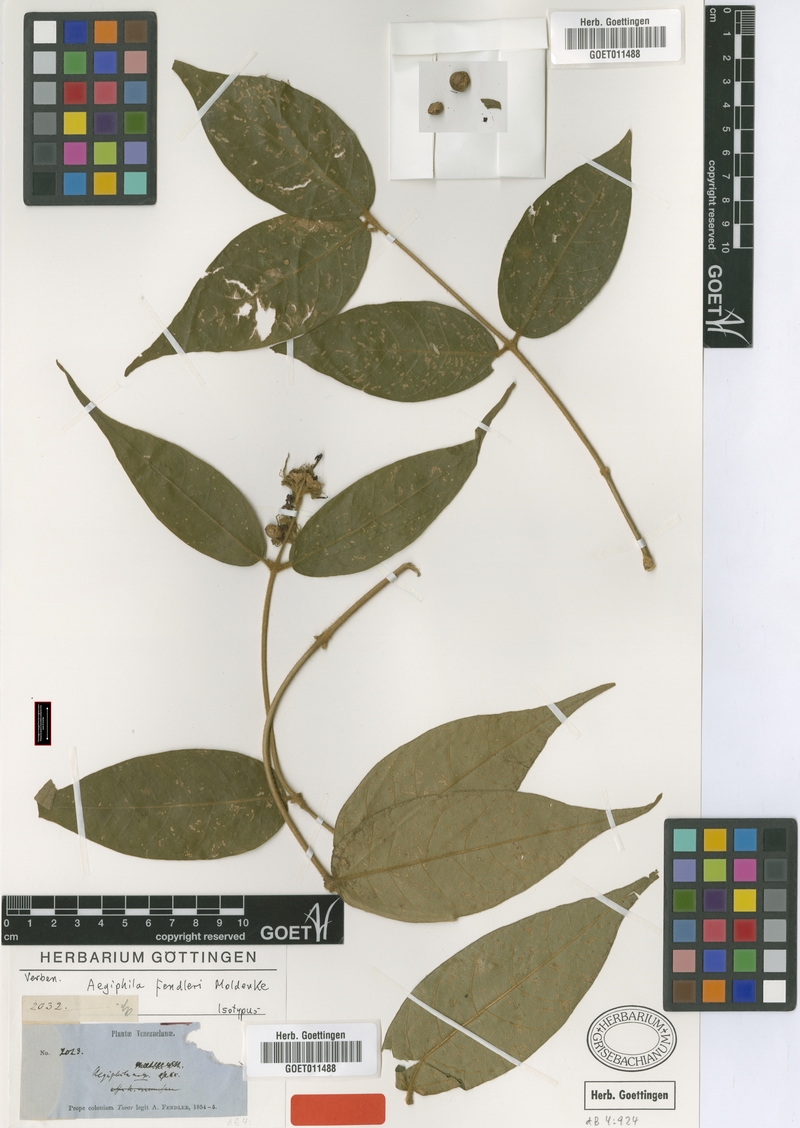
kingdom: Plantae
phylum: Tracheophyta
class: Magnoliopsida
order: Lamiales
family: Lamiaceae
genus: Aegiphila
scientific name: Aegiphila fendleri
